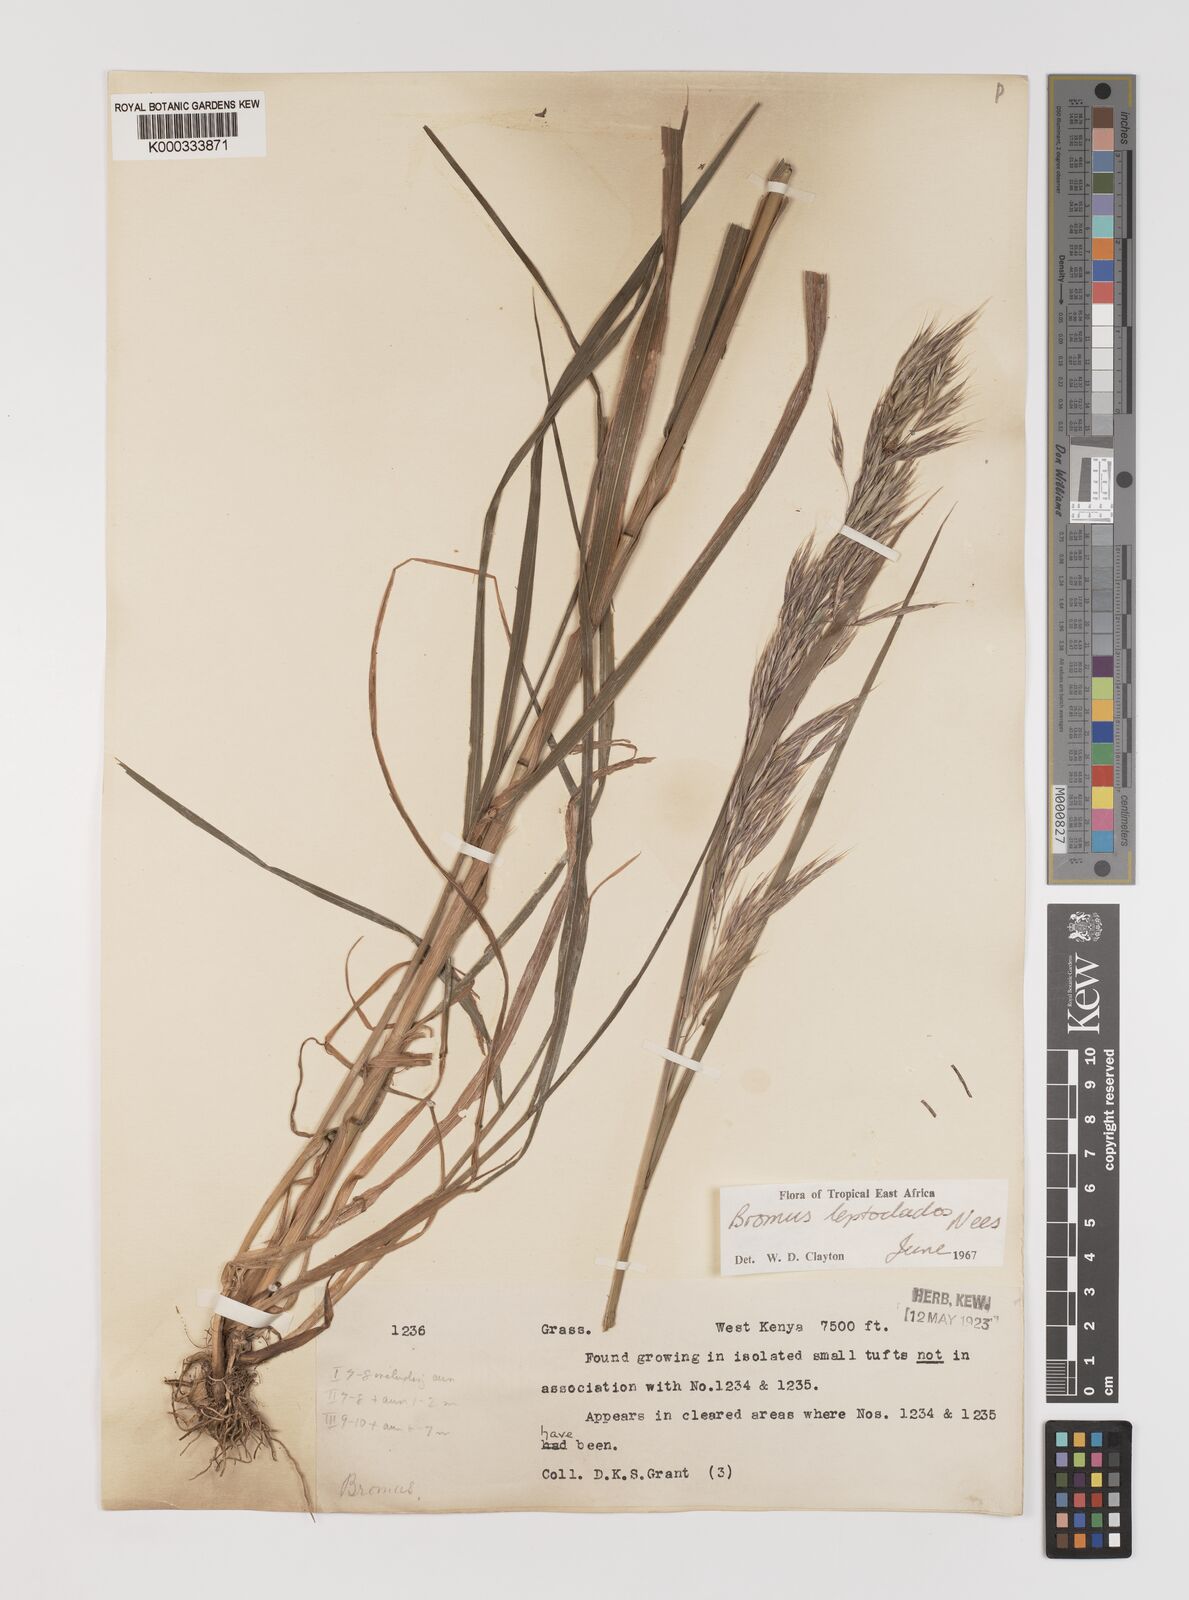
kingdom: Plantae
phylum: Tracheophyta
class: Liliopsida
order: Poales
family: Poaceae
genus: Bromus
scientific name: Bromus leptoclados
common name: Mountain bromegrass
